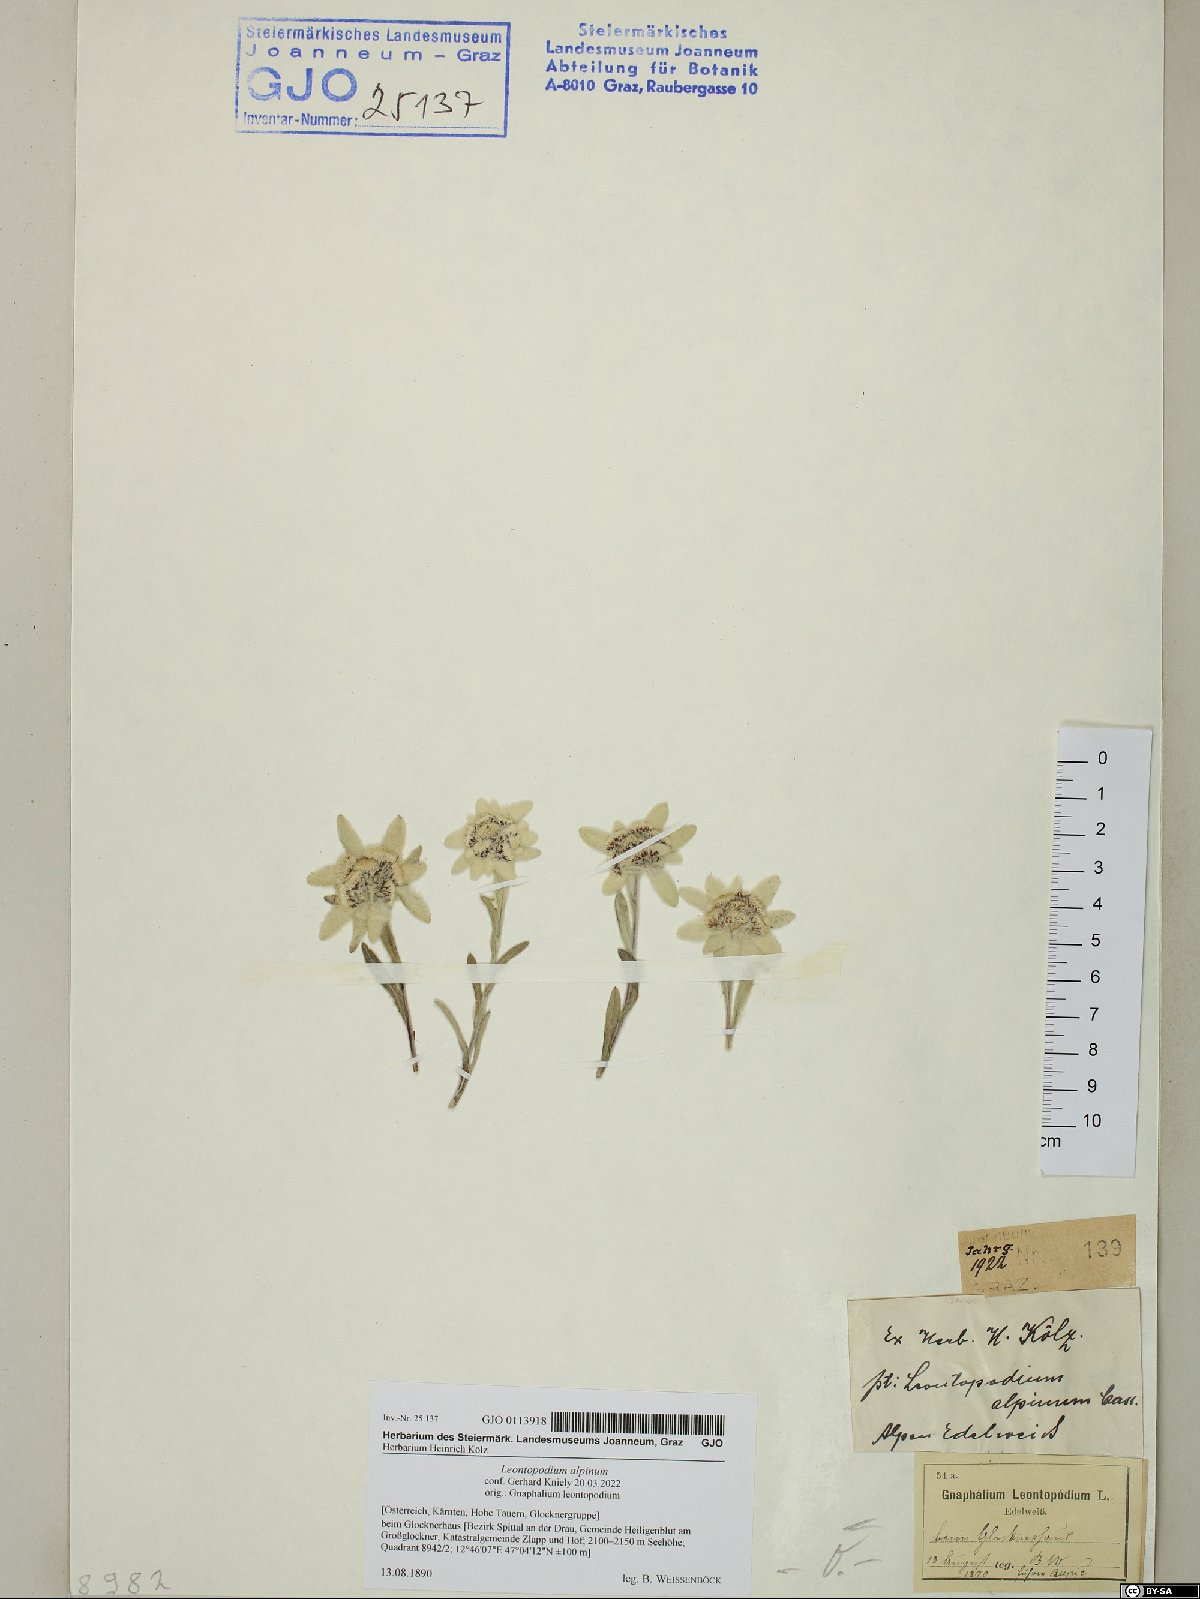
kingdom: Plantae
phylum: Tracheophyta
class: Magnoliopsida
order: Asterales
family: Asteraceae
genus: Leontopodium
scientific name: Leontopodium nivale
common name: Edelweiss
